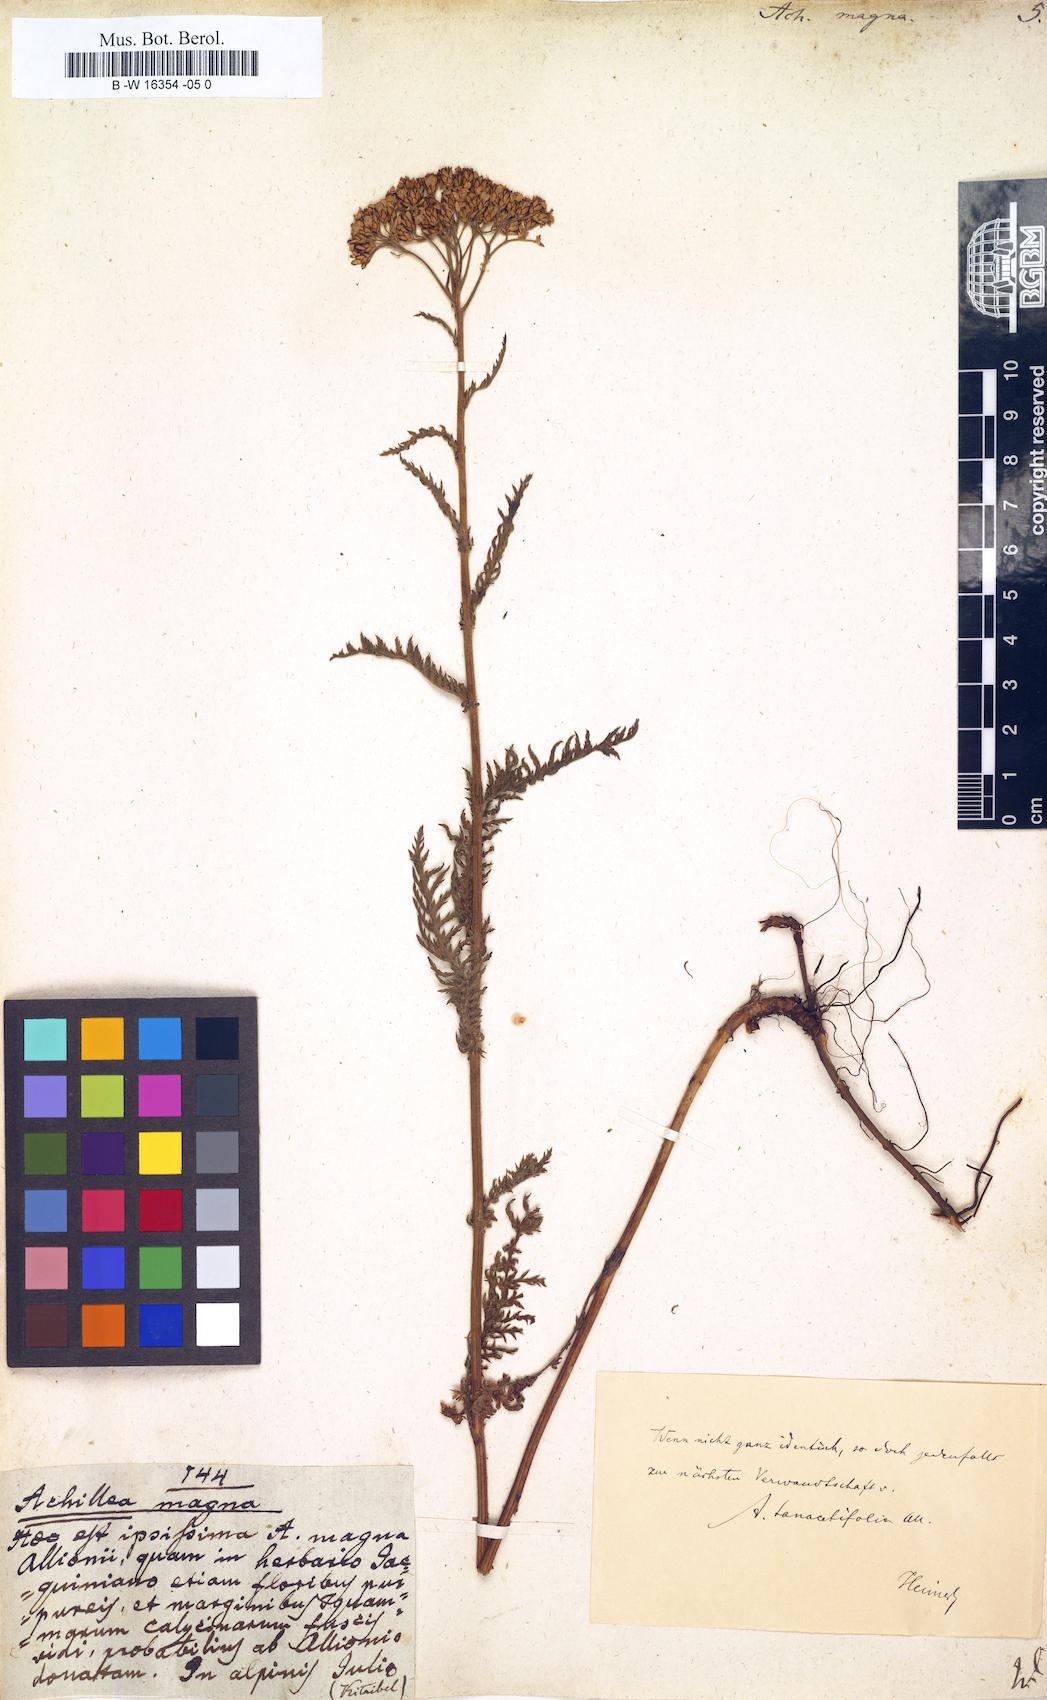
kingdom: Plantae
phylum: Tracheophyta
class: Magnoliopsida
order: Asterales
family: Asteraceae
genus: Achillea
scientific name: Achillea millefolium
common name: Yarrow
